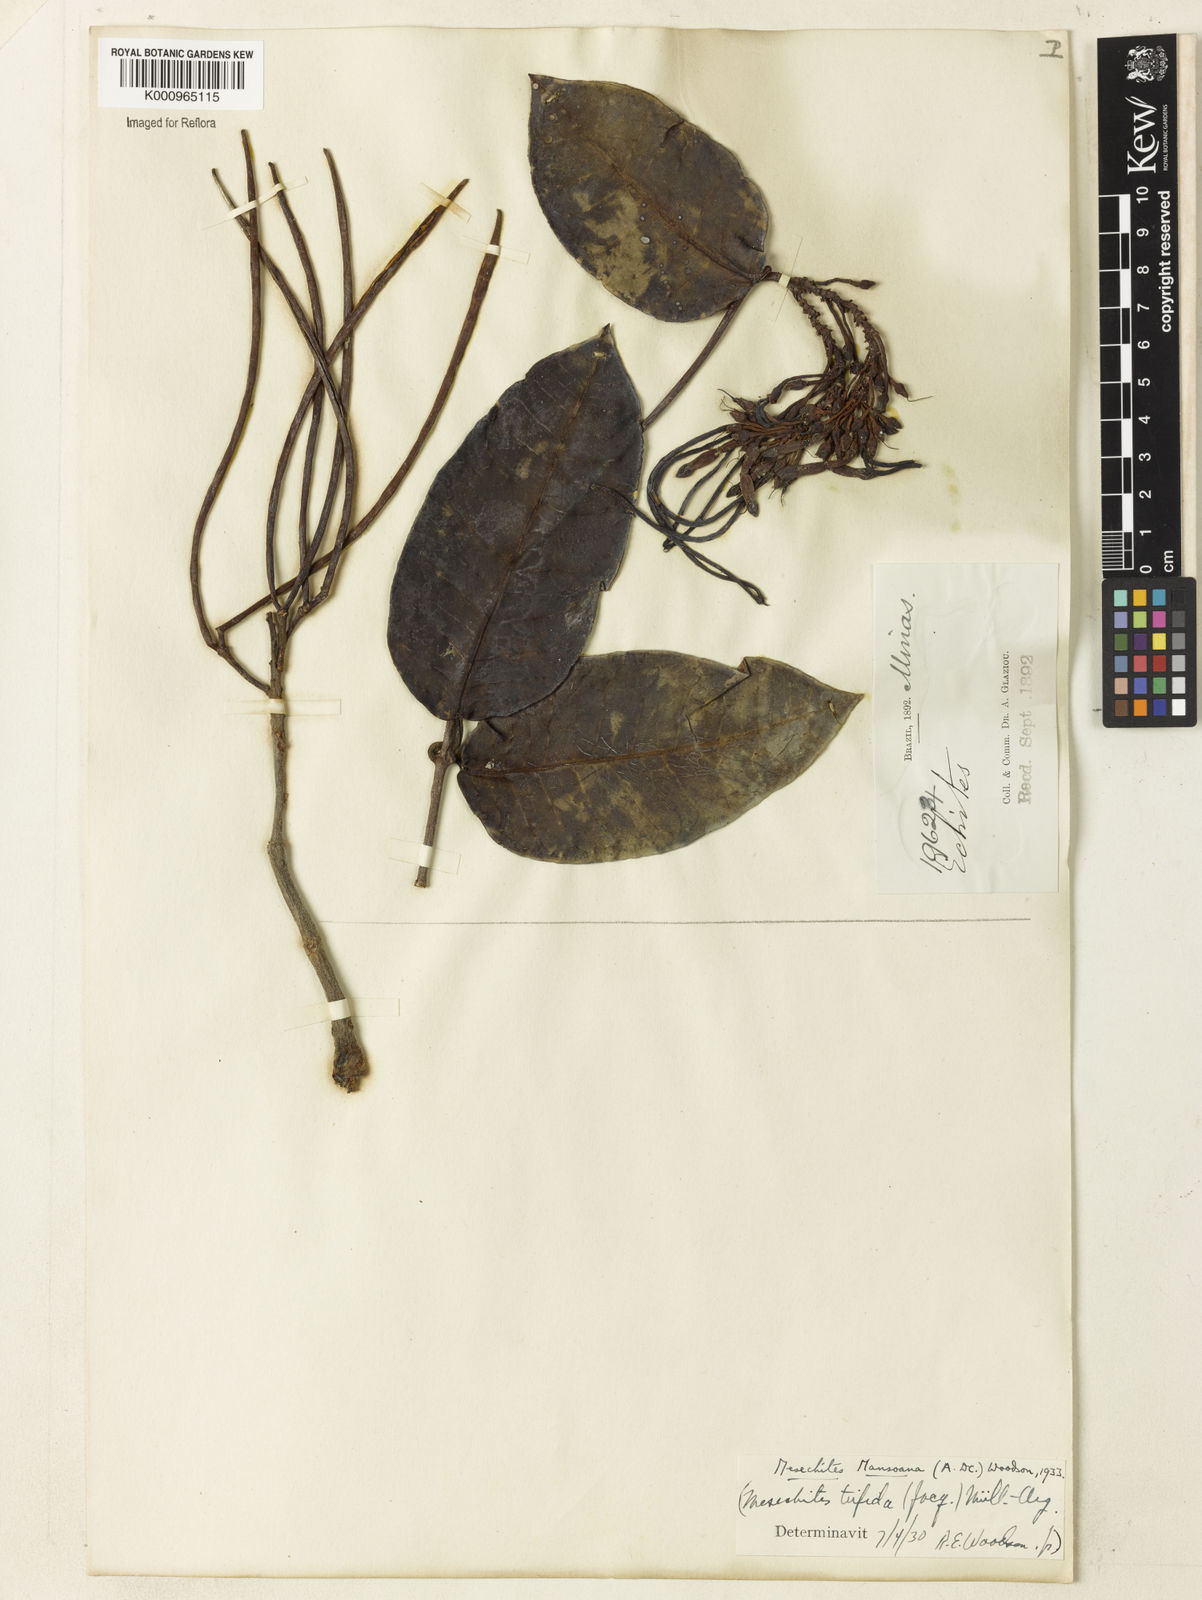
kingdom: Plantae
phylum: Tracheophyta
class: Magnoliopsida
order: Gentianales
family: Apocynaceae
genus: Mesechites
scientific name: Mesechites
